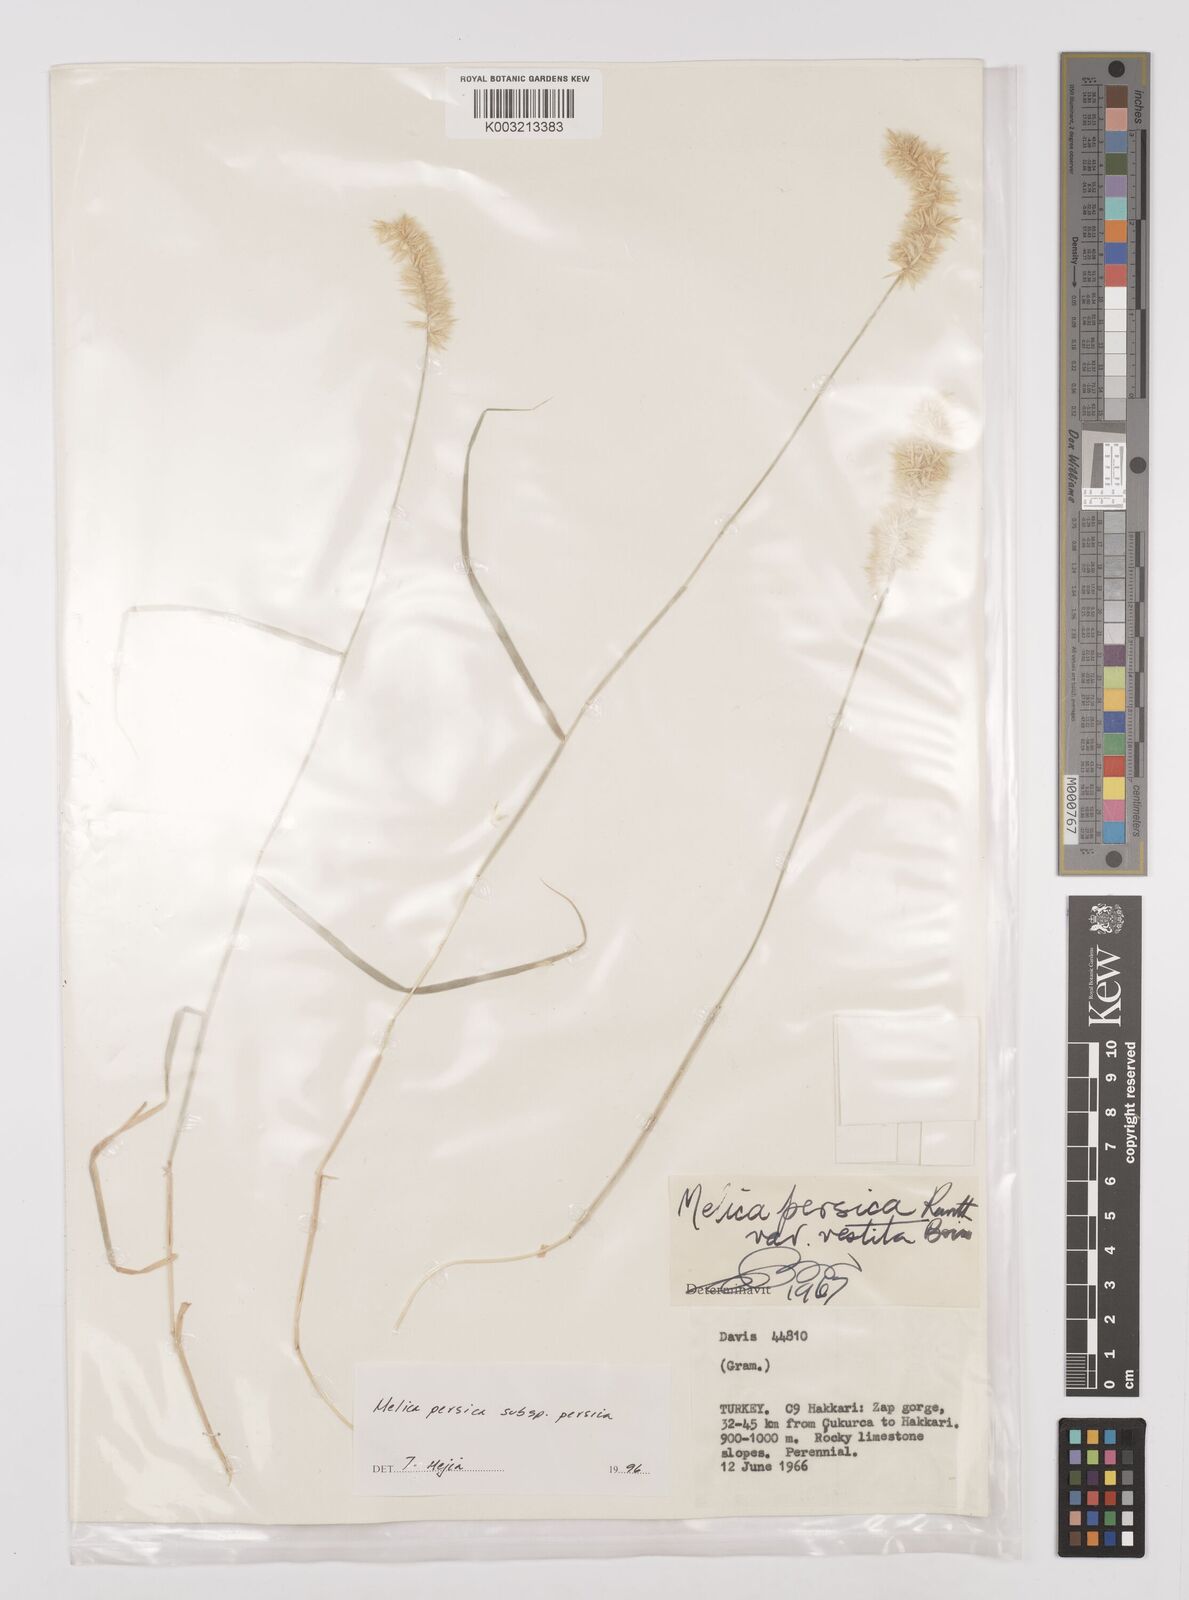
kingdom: Plantae
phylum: Tracheophyta
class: Liliopsida
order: Poales
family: Poaceae
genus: Melica
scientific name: Melica persica
